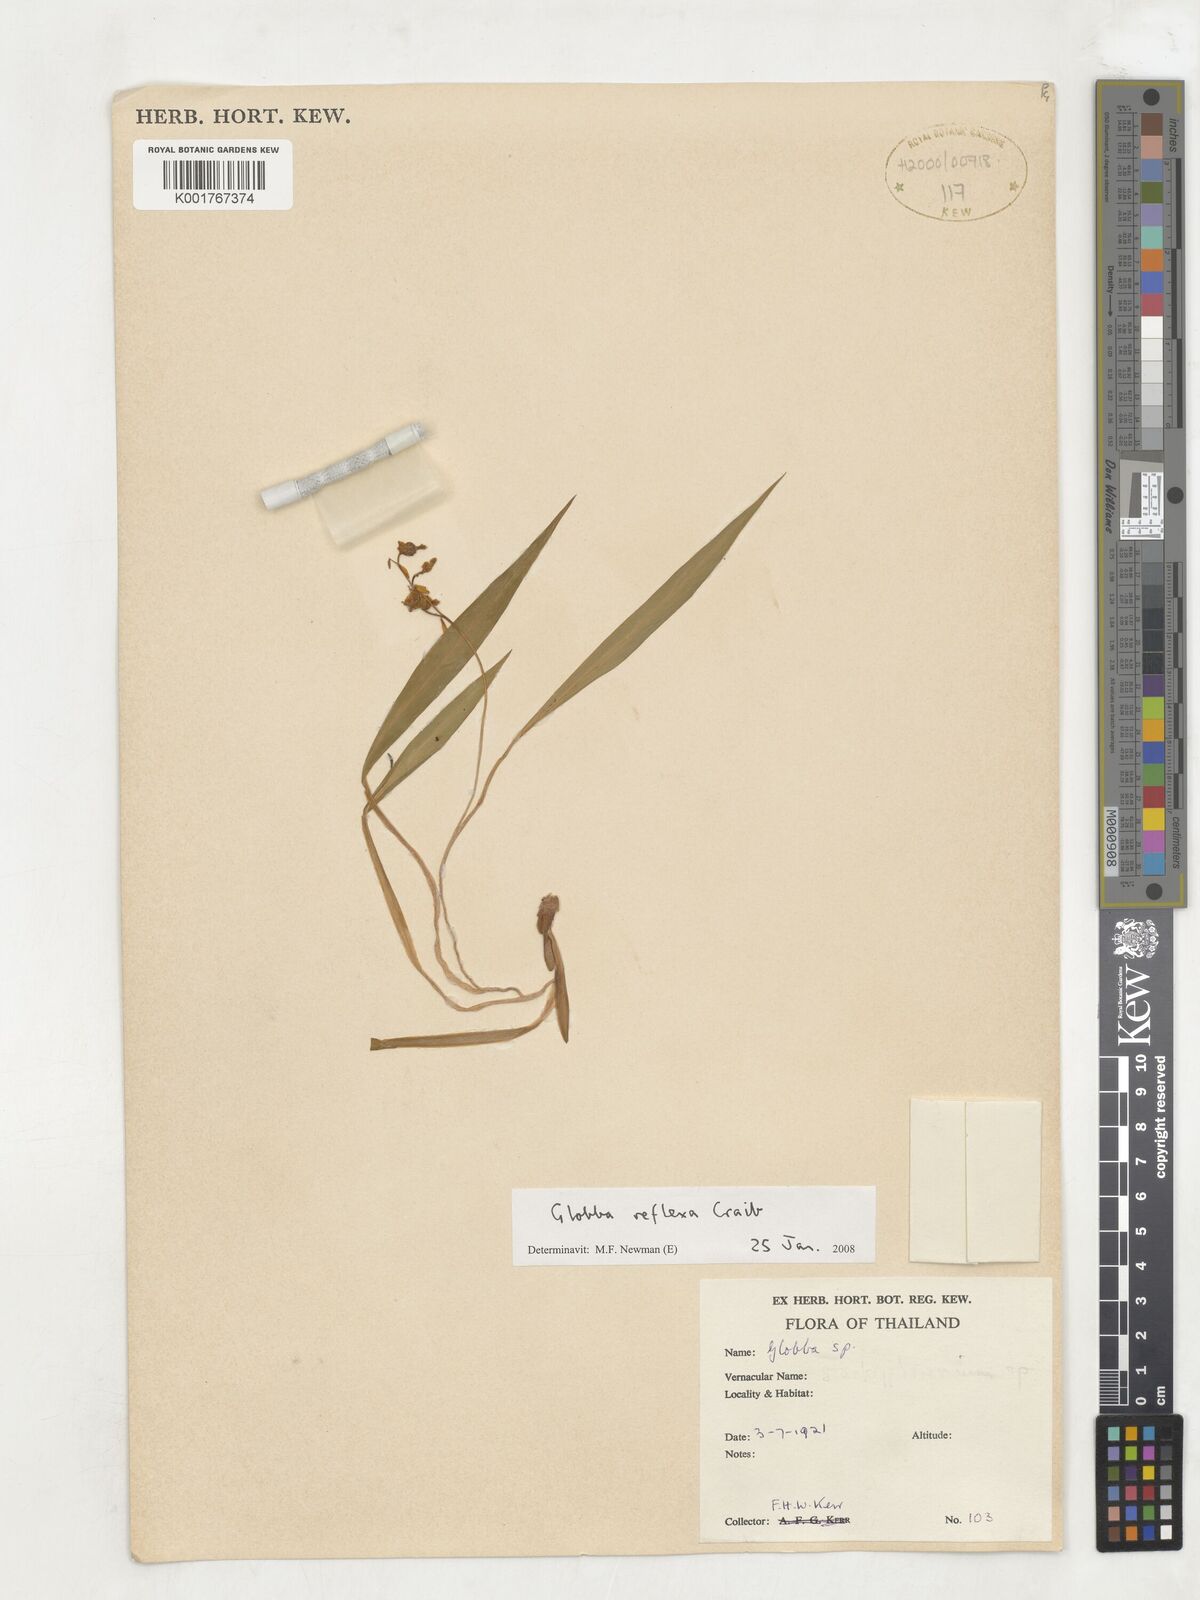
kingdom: Plantae
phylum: Tracheophyta
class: Liliopsida
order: Zingiberales
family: Zingiberaceae
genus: Globba
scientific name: Globba reflexa
